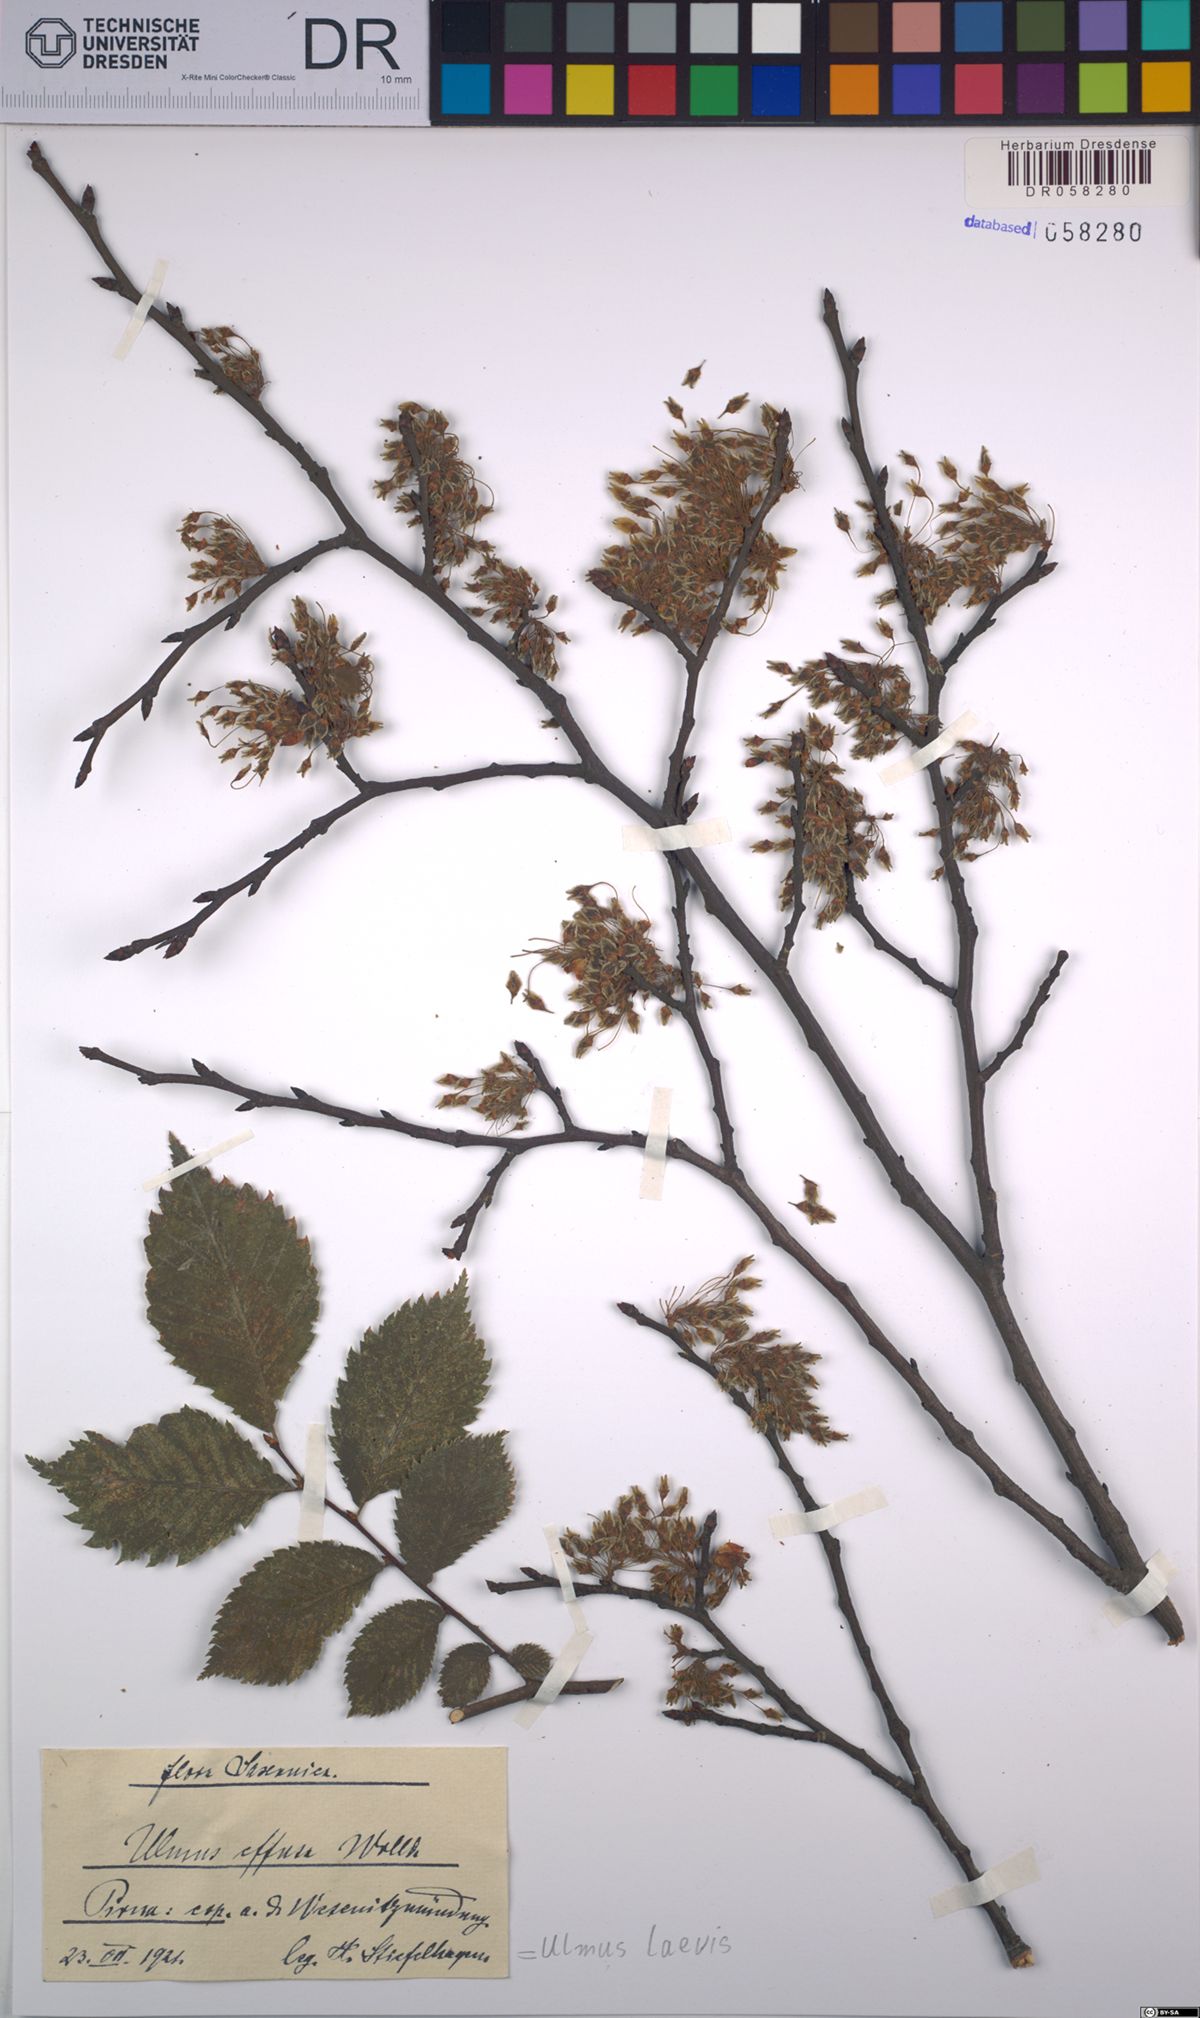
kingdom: Plantae
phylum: Tracheophyta
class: Magnoliopsida
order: Rosales
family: Ulmaceae
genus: Ulmus
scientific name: Ulmus laevis
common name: European white-elm
